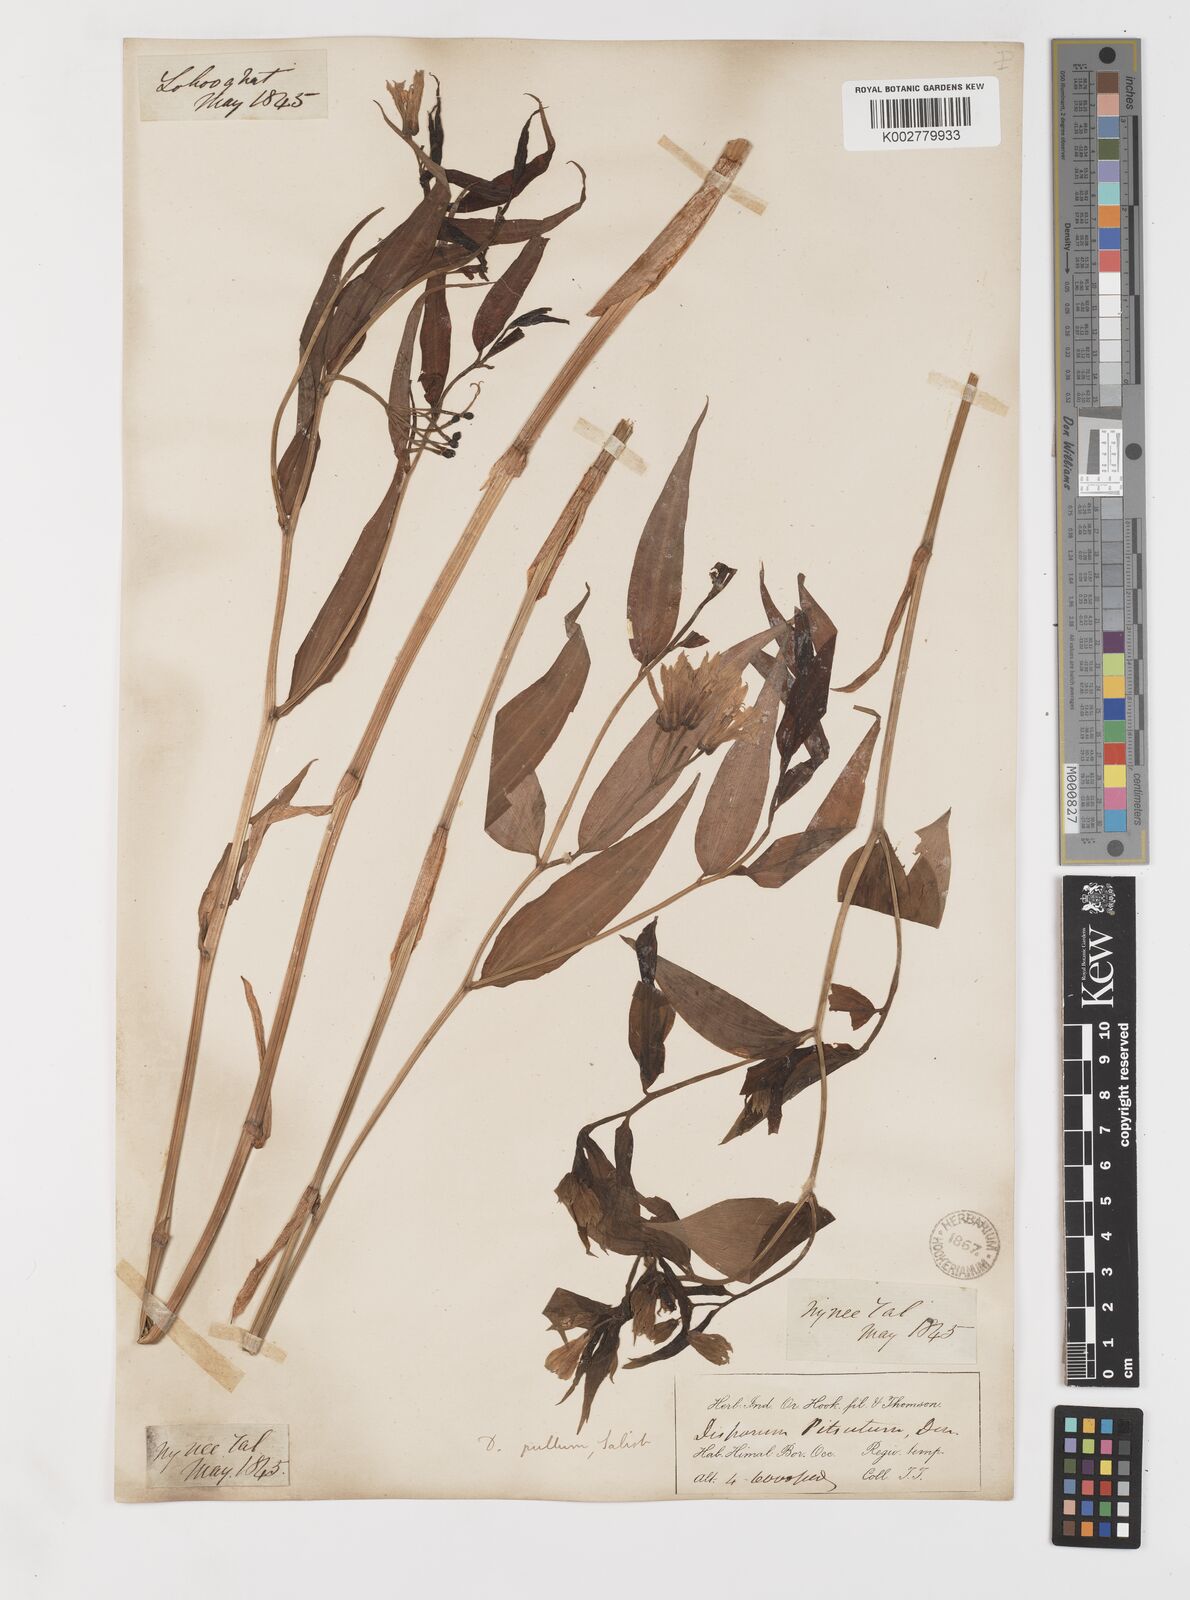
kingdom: Plantae
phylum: Tracheophyta
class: Liliopsida
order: Liliales
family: Colchicaceae
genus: Disporum
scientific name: Disporum cantoniense
